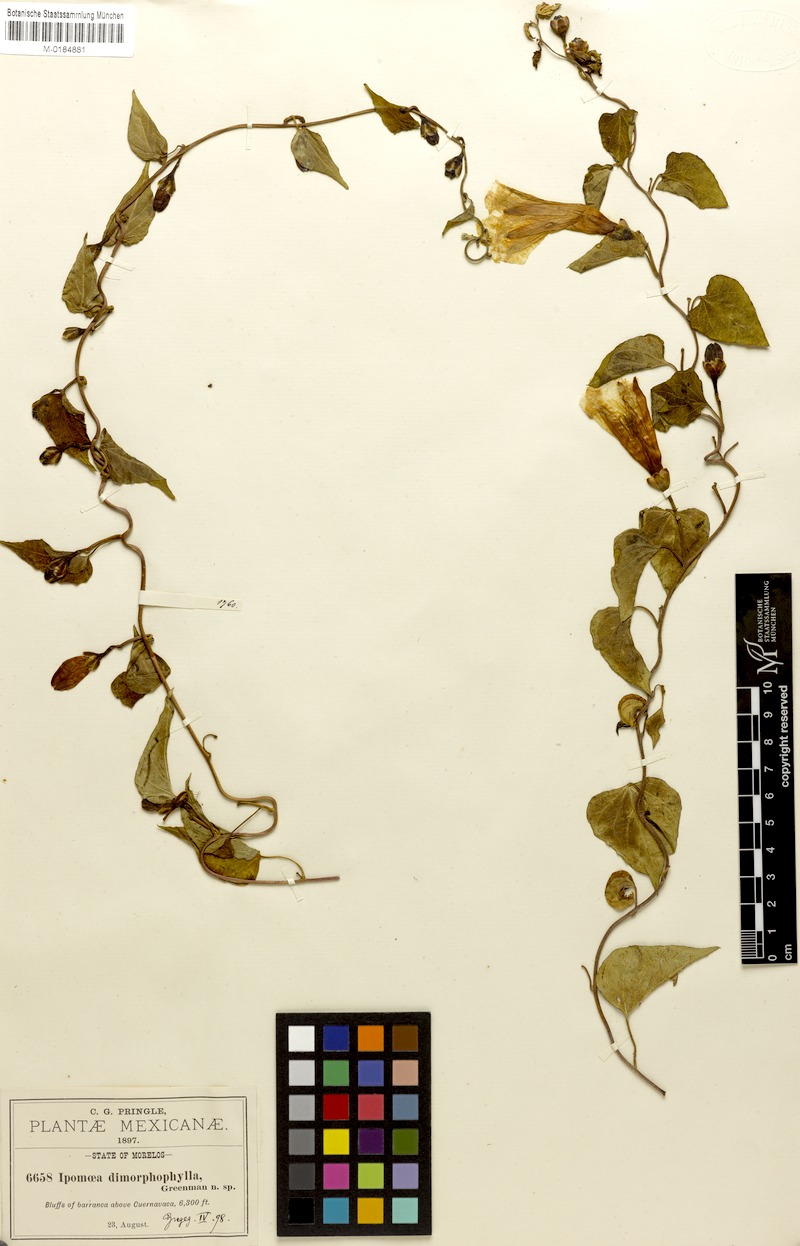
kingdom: Plantae
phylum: Tracheophyta
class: Magnoliopsida
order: Solanales
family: Convolvulaceae
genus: Ipomoea
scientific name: Ipomoea proxima
